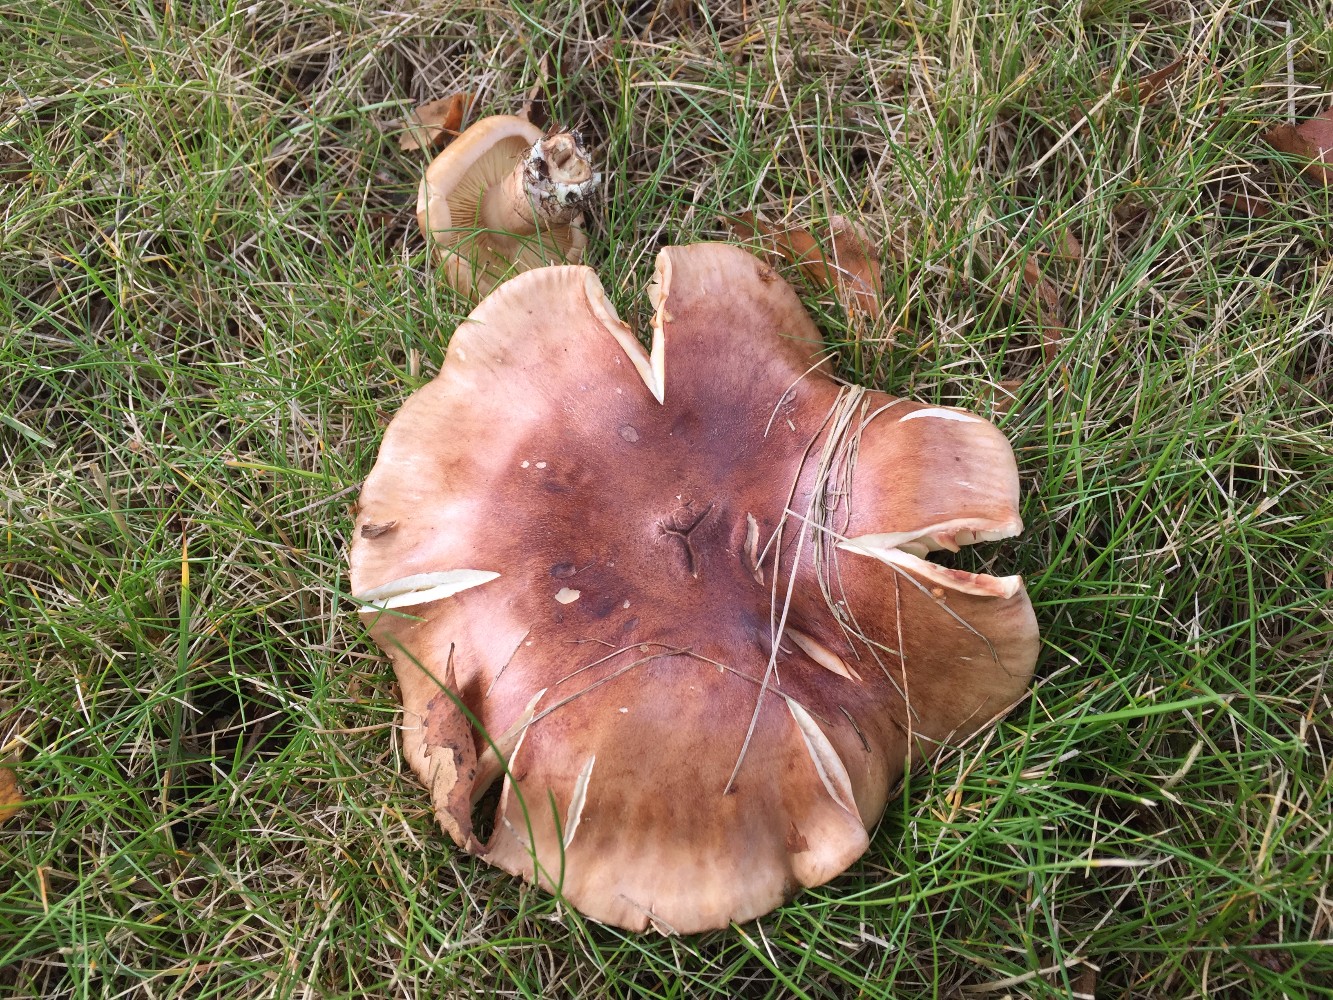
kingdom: Fungi
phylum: Basidiomycota
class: Agaricomycetes
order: Agaricales
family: Tricholomataceae
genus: Tricholoma
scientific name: Tricholoma fulvum
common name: birke-ridderhat
